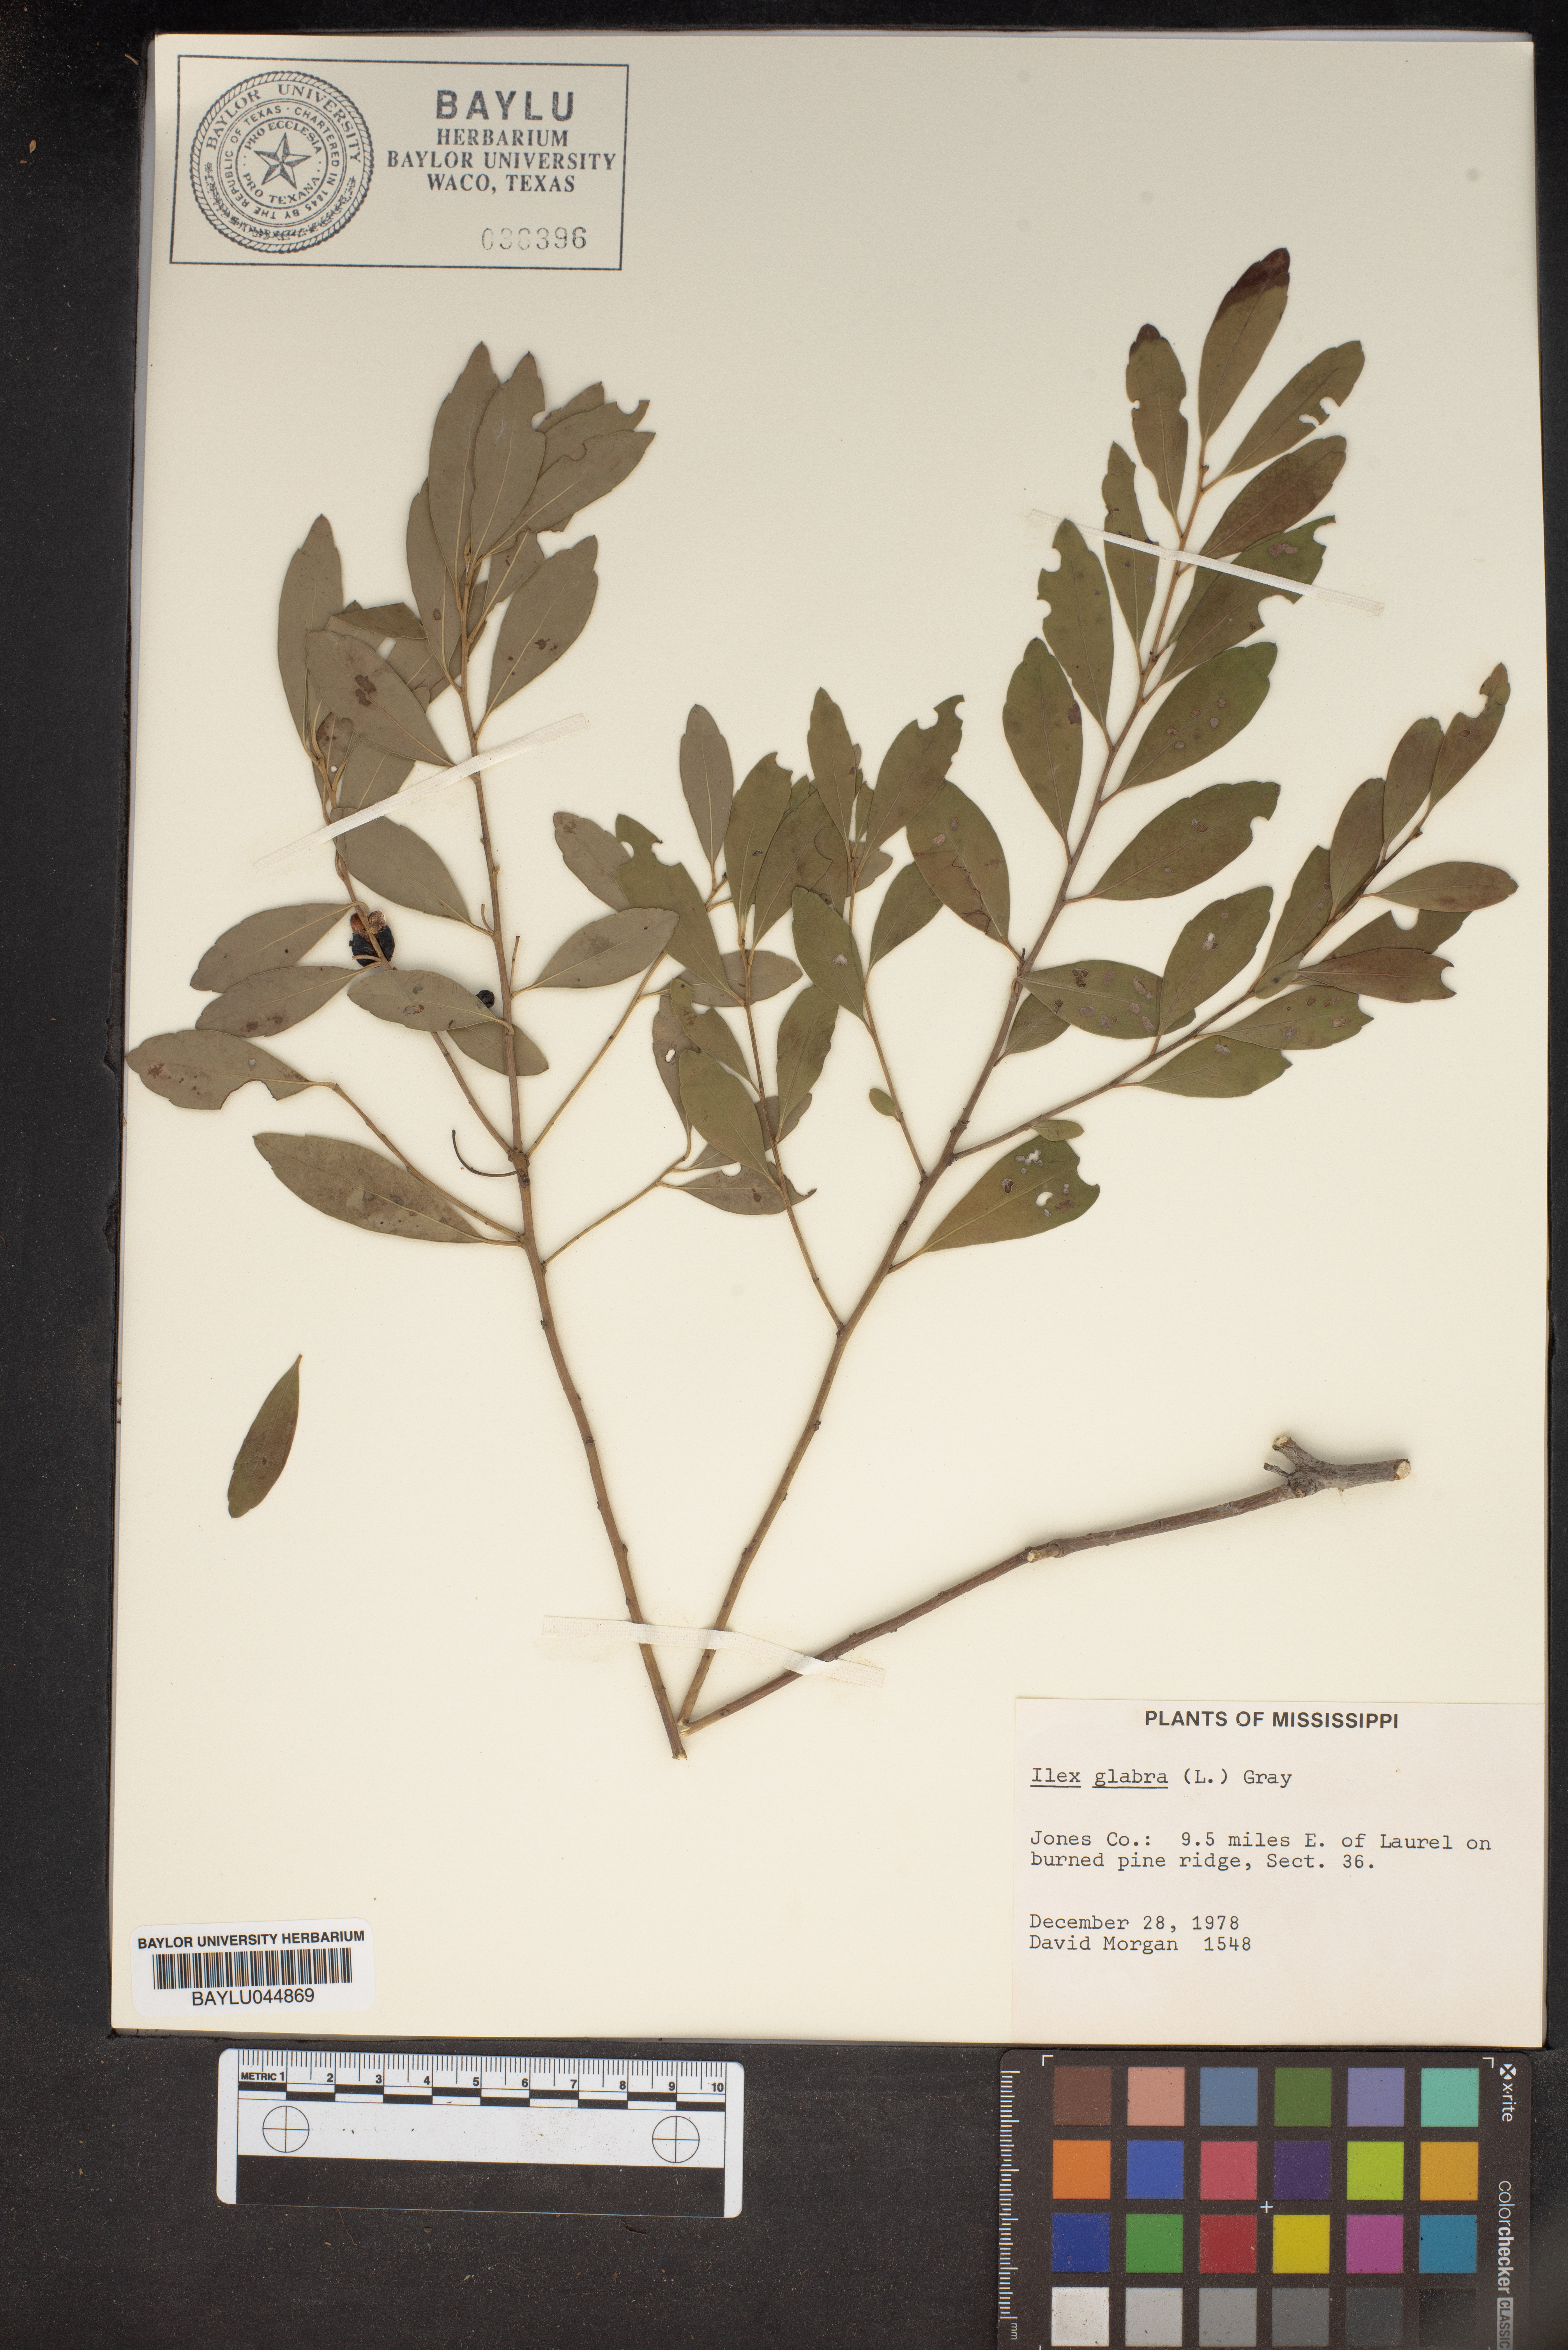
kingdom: Plantae
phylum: Tracheophyta
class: Magnoliopsida
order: Aquifoliales
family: Aquifoliaceae
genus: Ilex
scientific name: Ilex glabra
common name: Bitter gallberry
